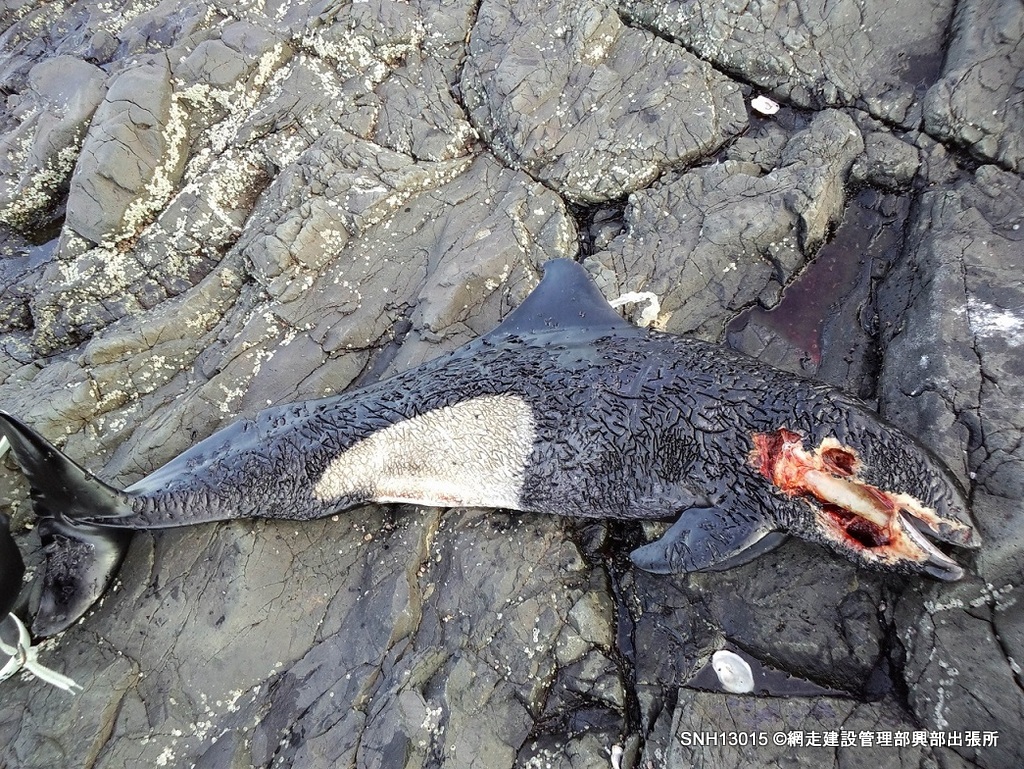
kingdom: Animalia
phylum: Chordata
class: Mammalia
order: Cetacea
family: Phocoenidae
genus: Phocoenoides
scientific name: Phocoenoides dalli
